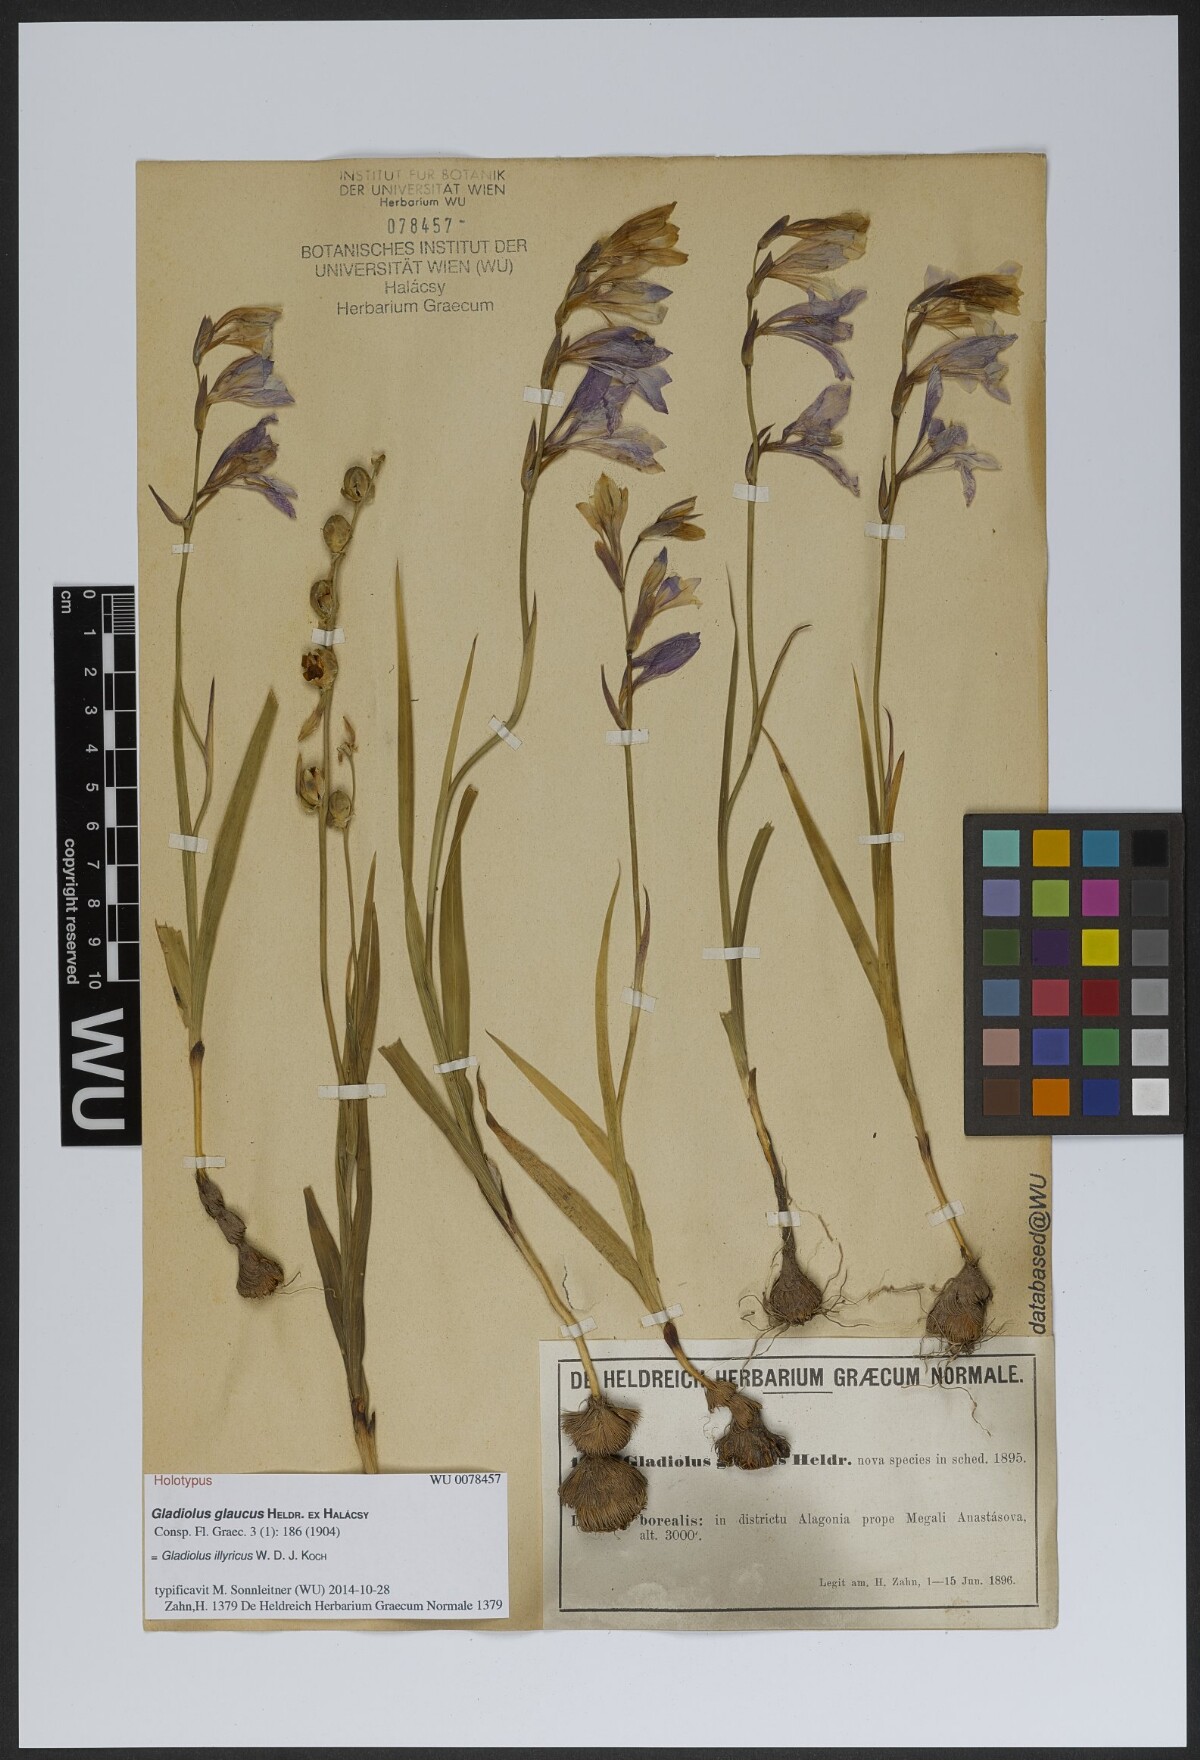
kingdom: Plantae
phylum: Tracheophyta
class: Liliopsida
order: Asparagales
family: Iridaceae
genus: Gladiolus
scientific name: Gladiolus illyricus
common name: Wild gladiolus
